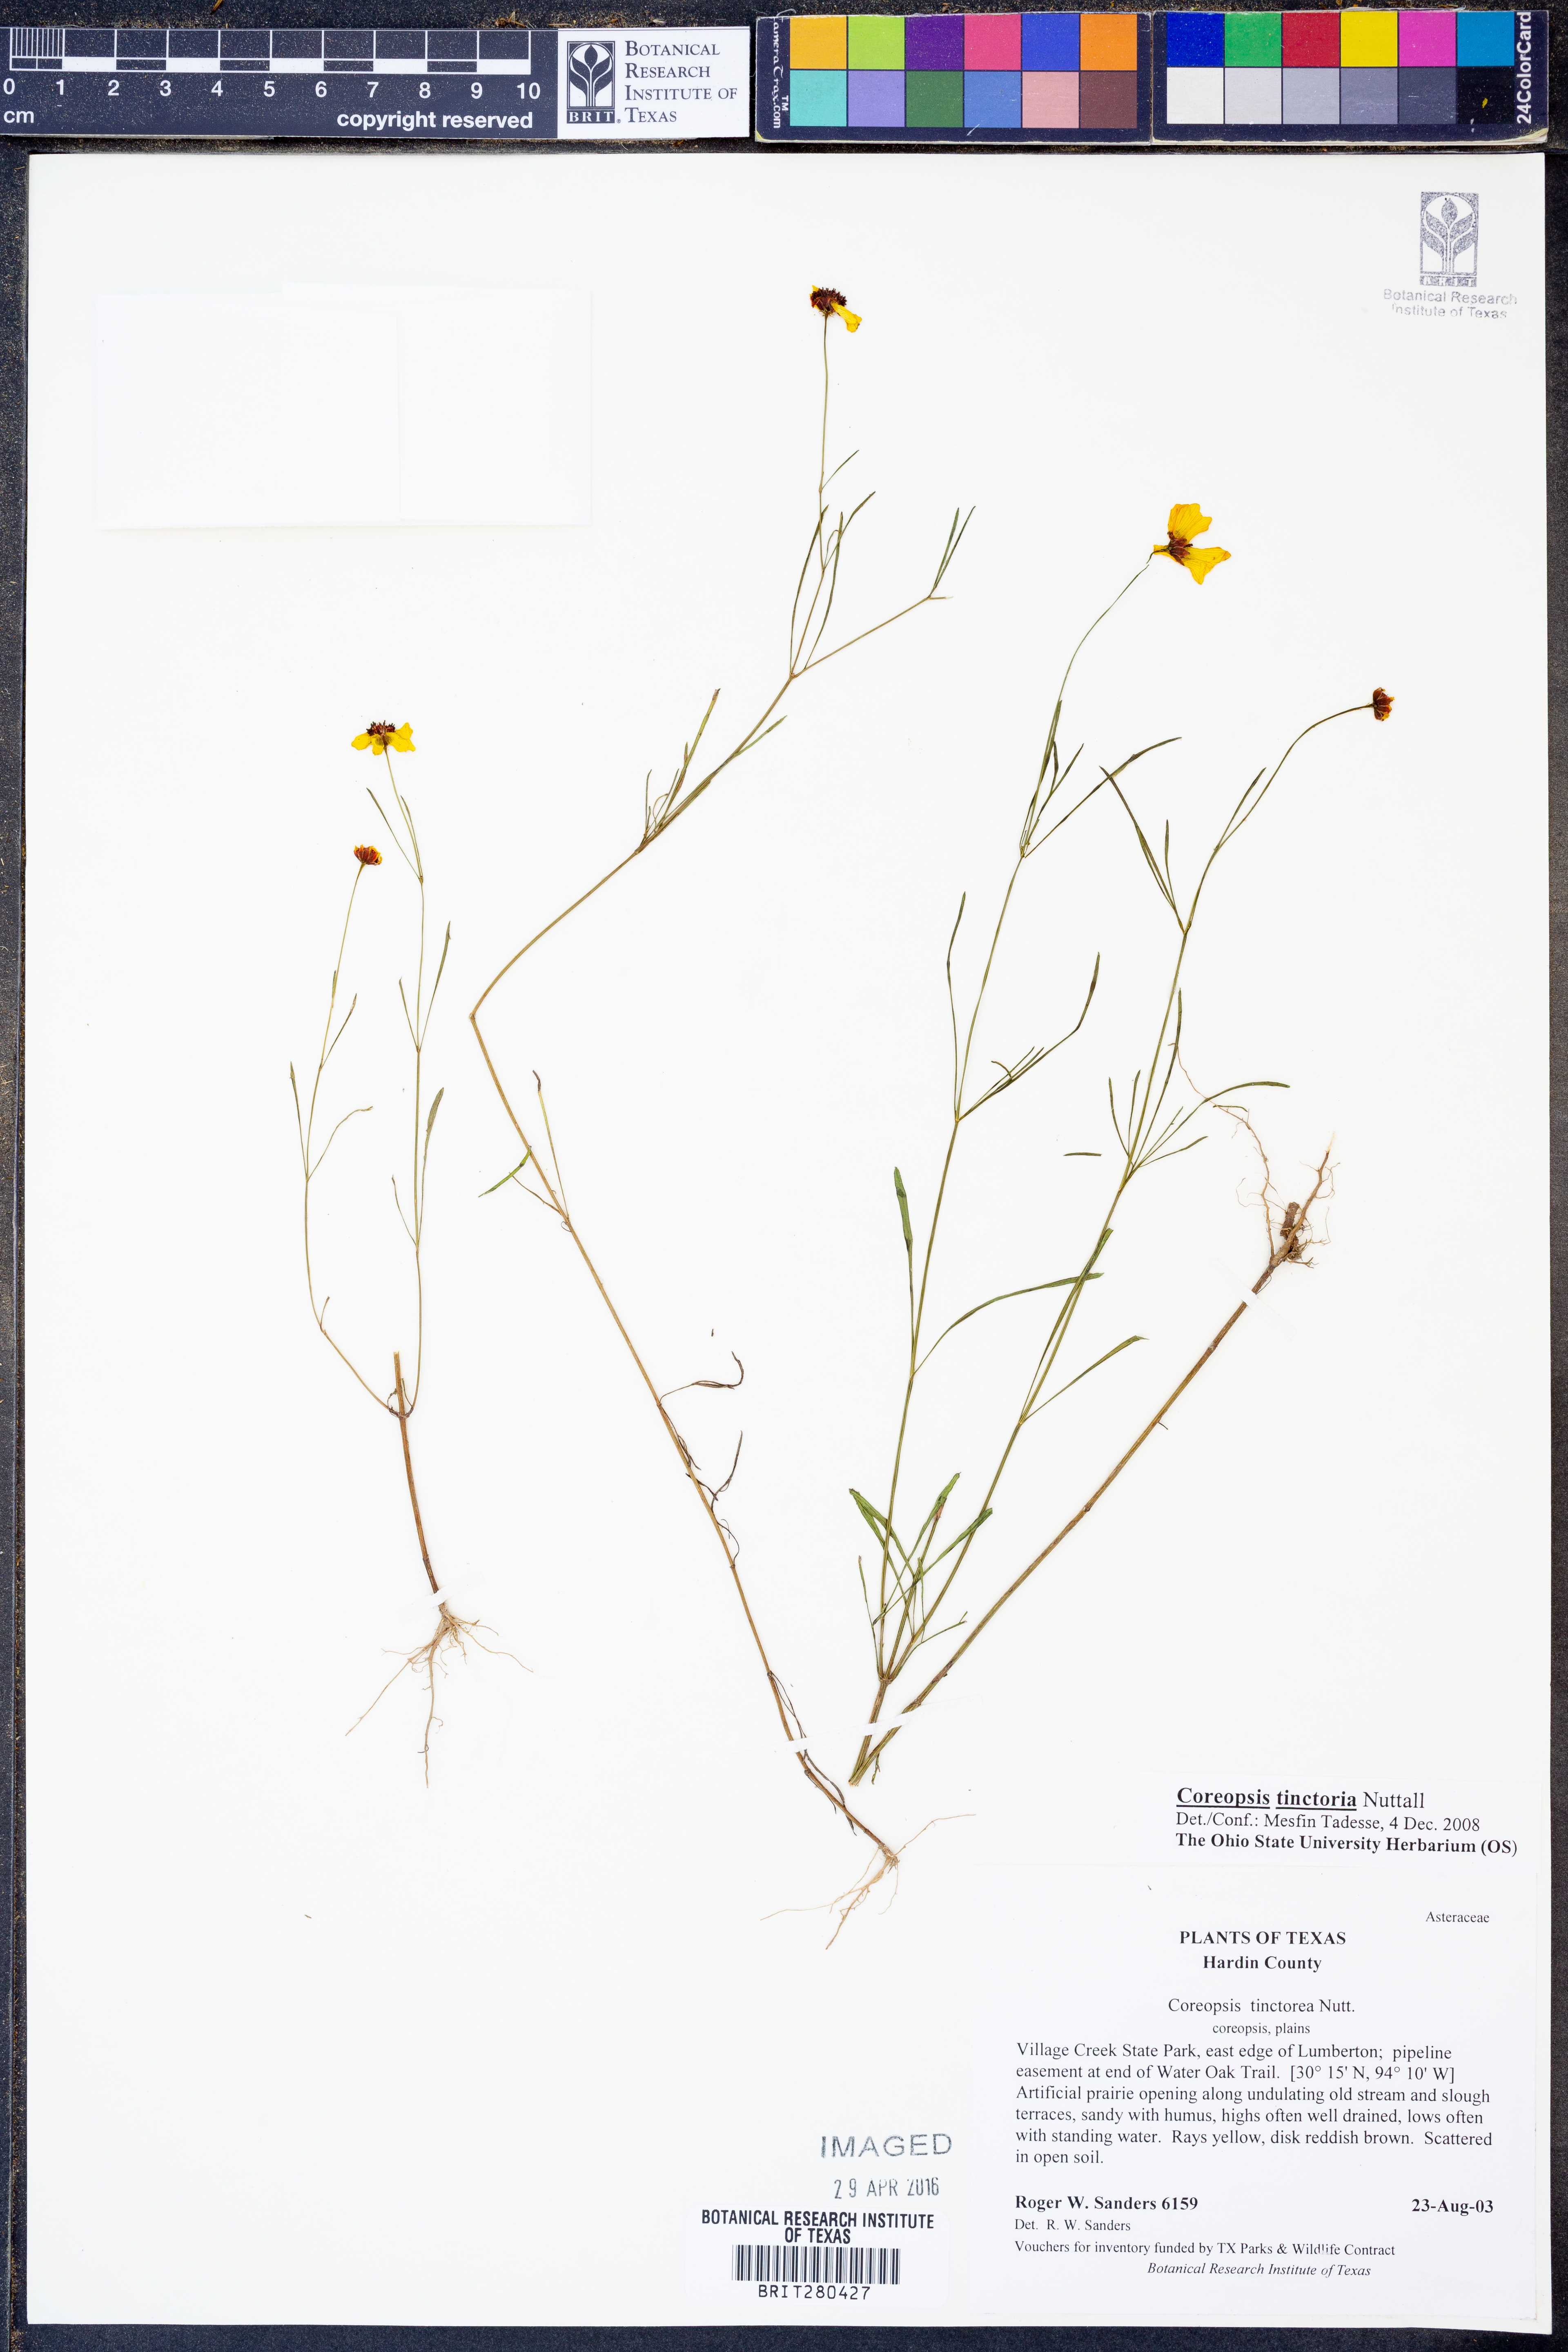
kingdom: Plantae
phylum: Tracheophyta
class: Magnoliopsida
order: Asterales
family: Asteraceae
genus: Coreopsis
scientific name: Coreopsis tinctoria
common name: Garden tickseed
